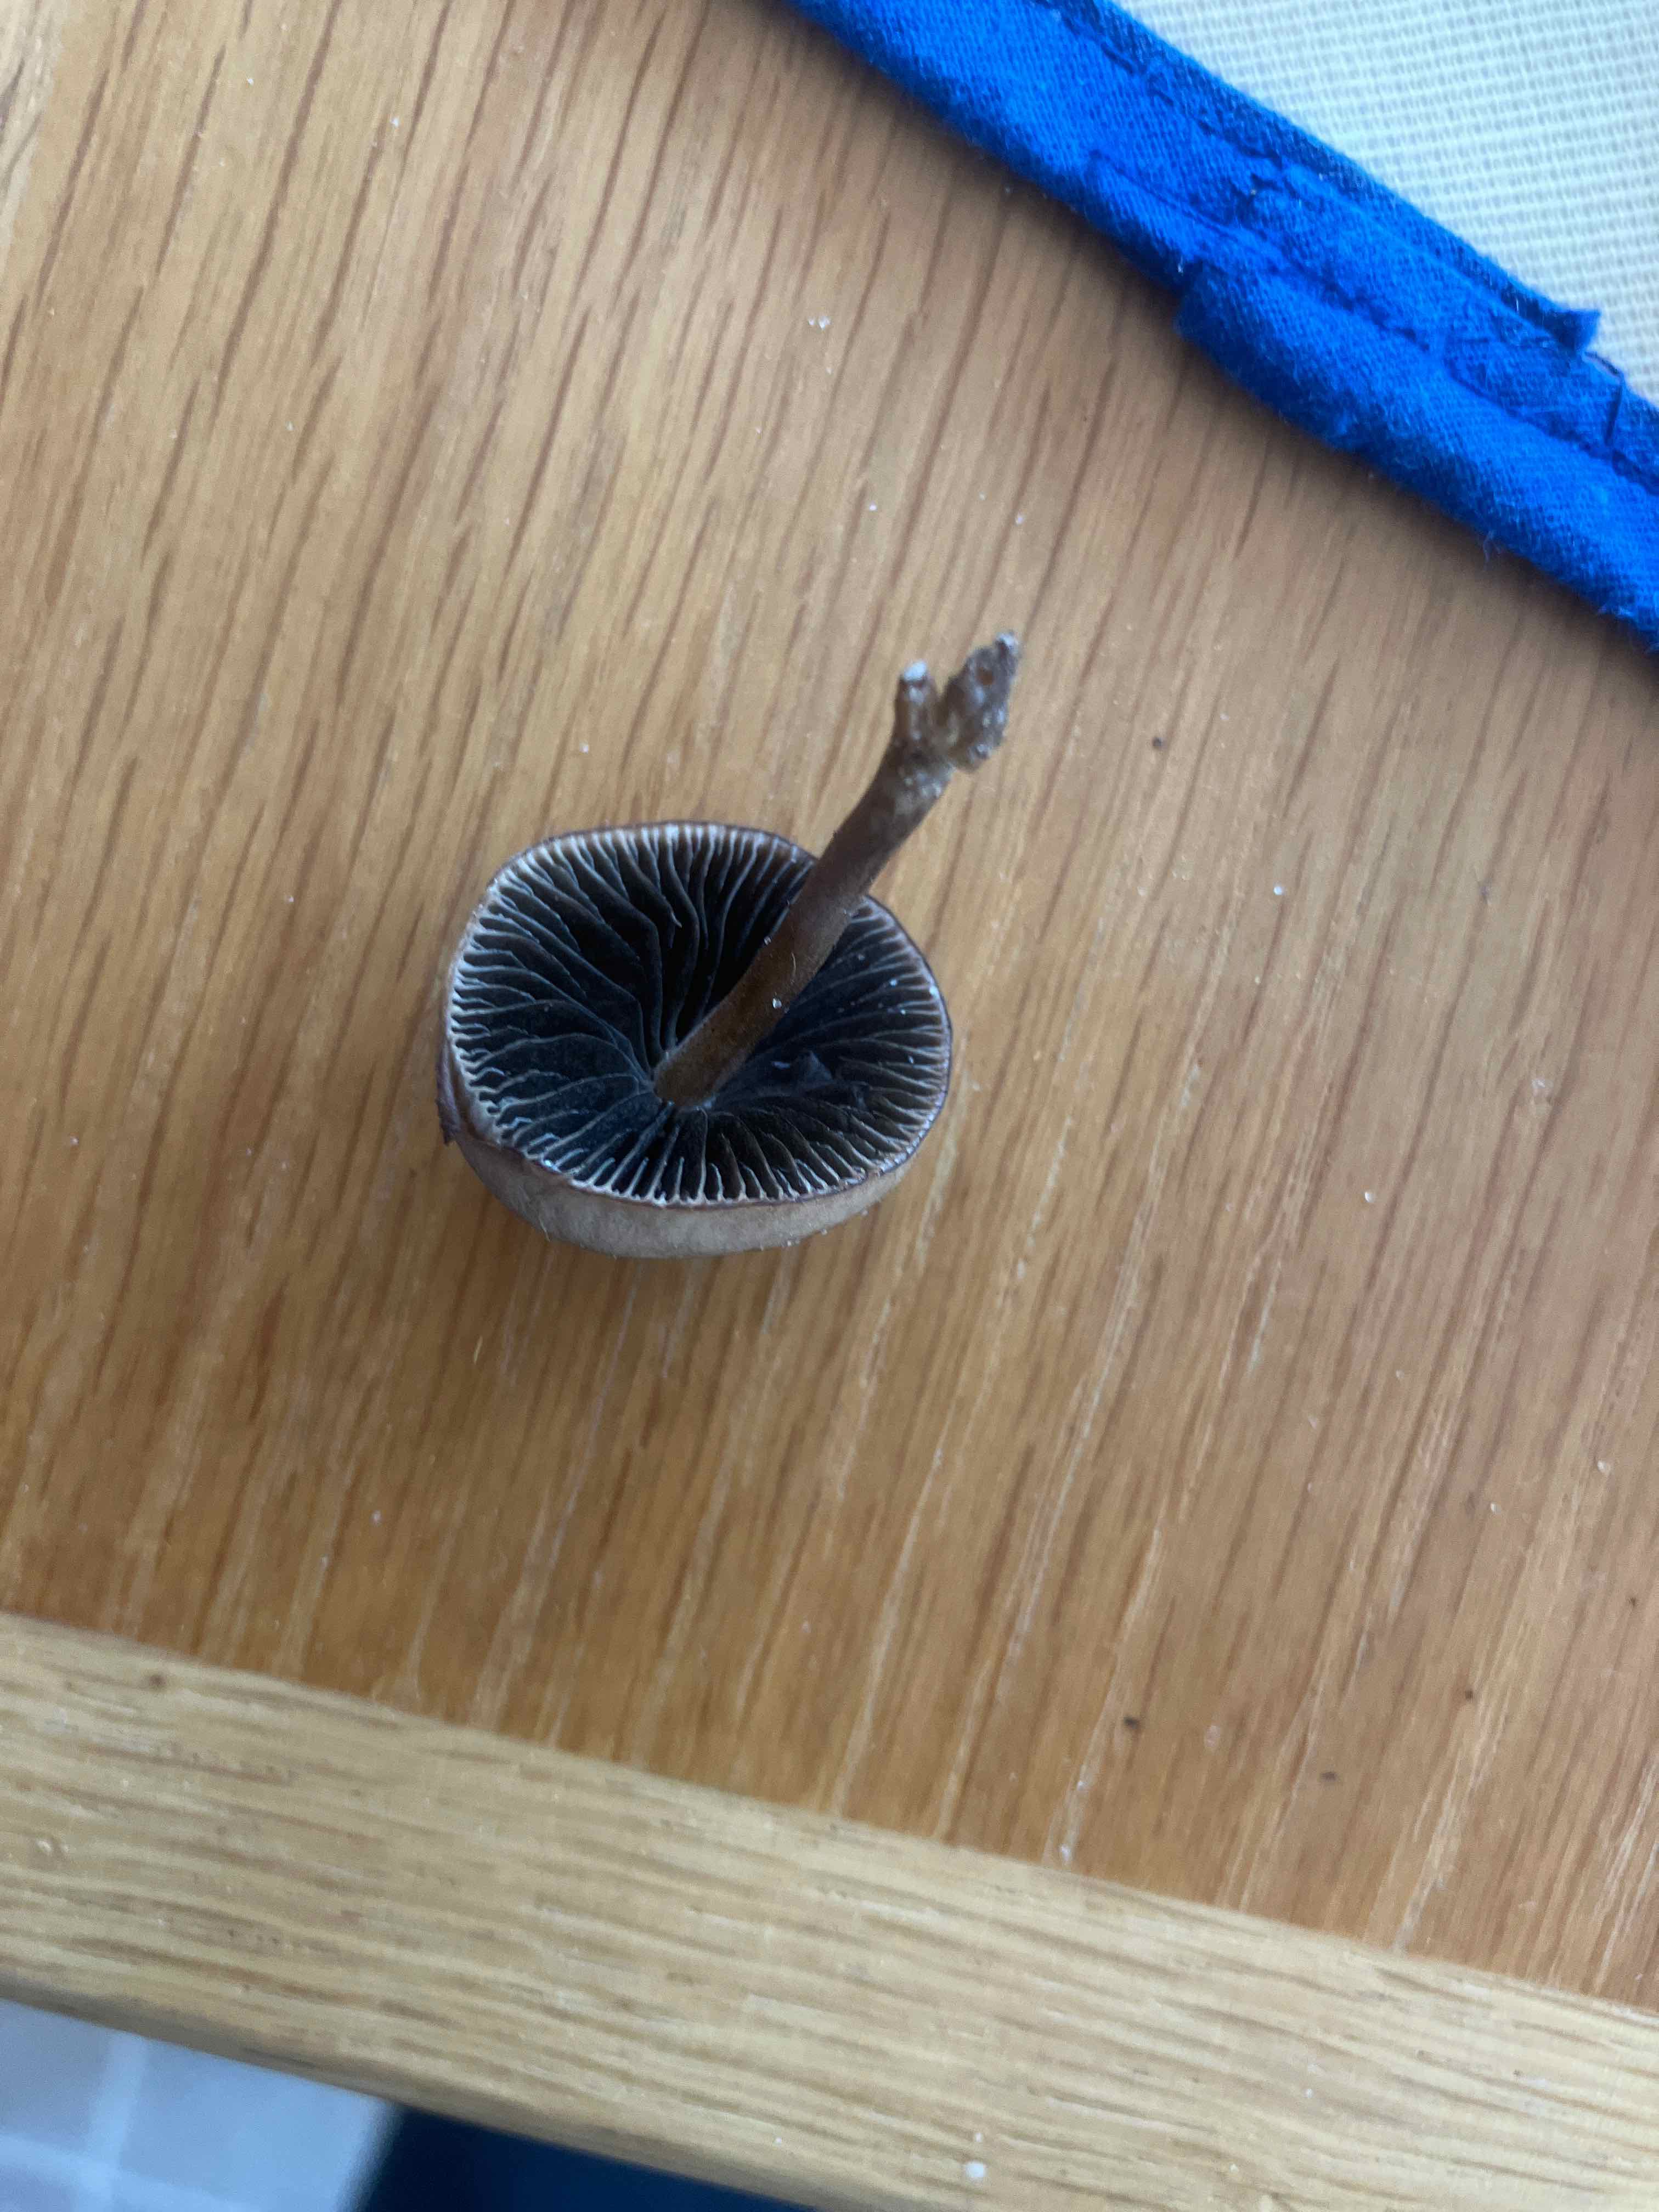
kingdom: Fungi
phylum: Basidiomycota
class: Agaricomycetes
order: Agaricales
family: Bolbitiaceae
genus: Panaeolus
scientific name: Panaeolus
